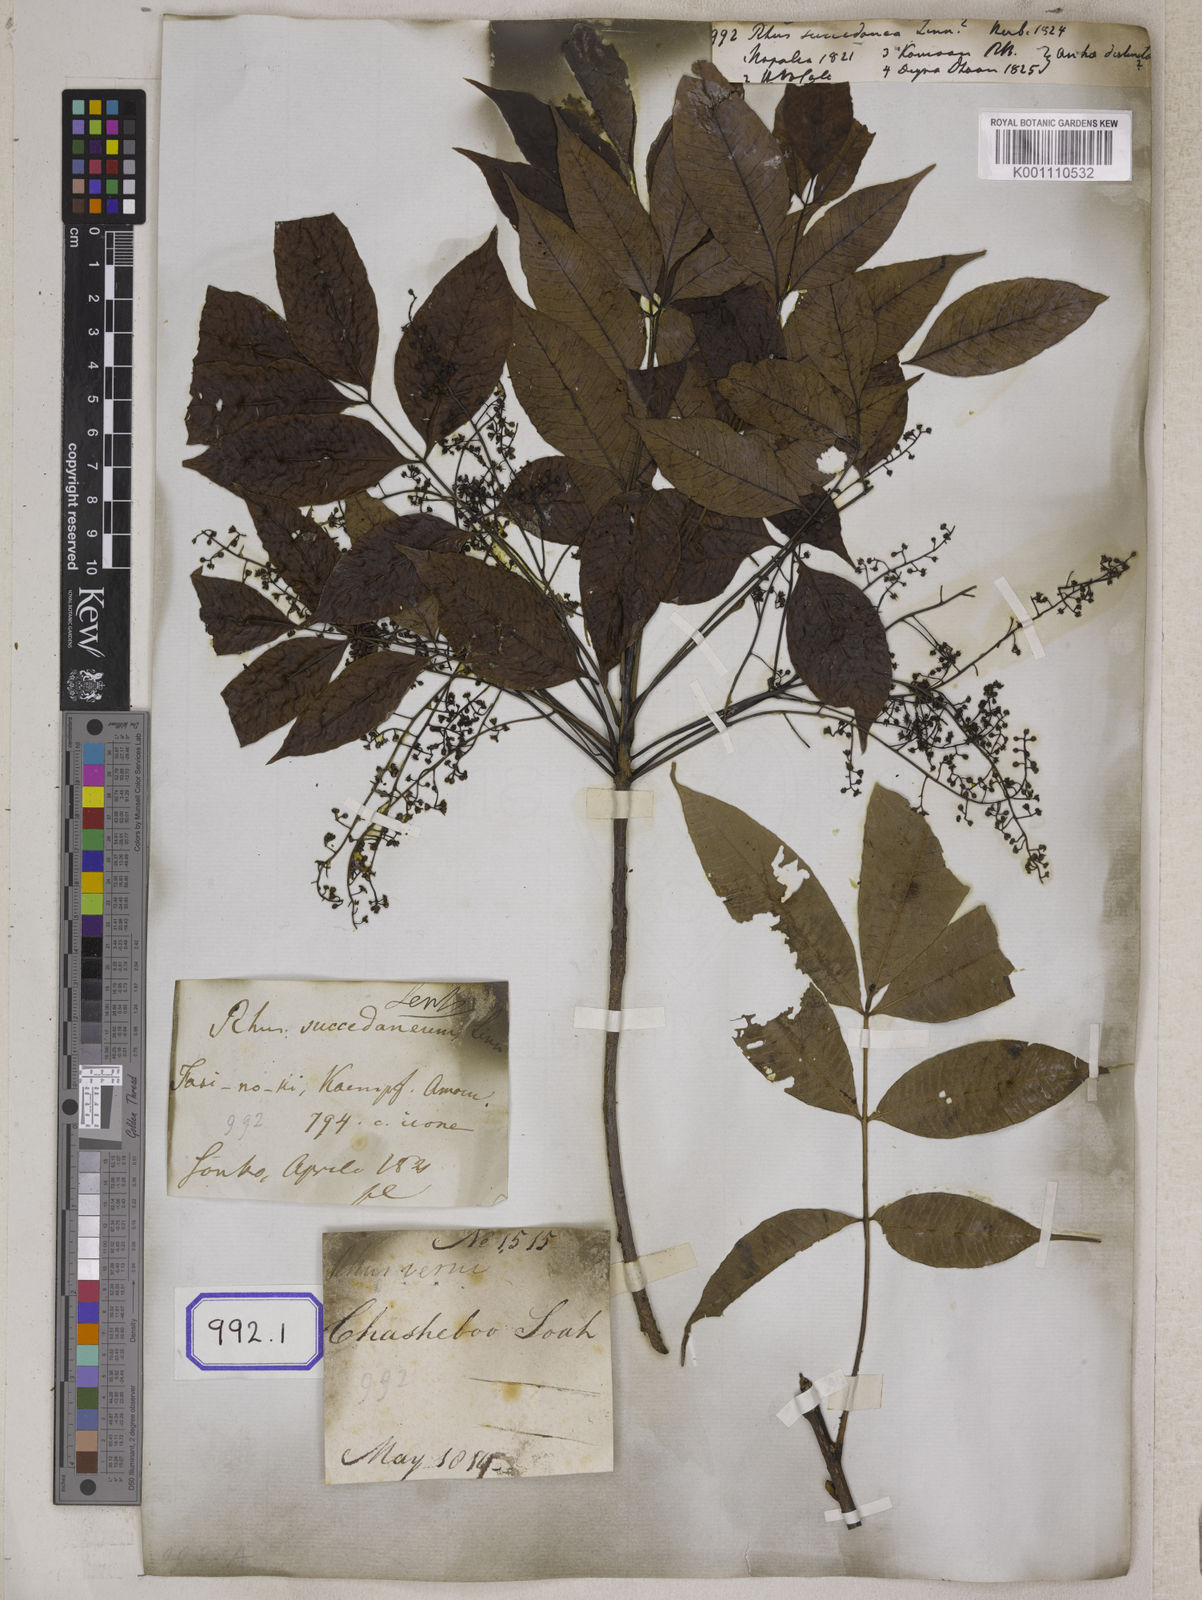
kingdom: Plantae
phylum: Tracheophyta
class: Magnoliopsida
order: Sapindales
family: Anacardiaceae
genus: Toxicodendron
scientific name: Toxicodendron succedaneum
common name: Wax tree
